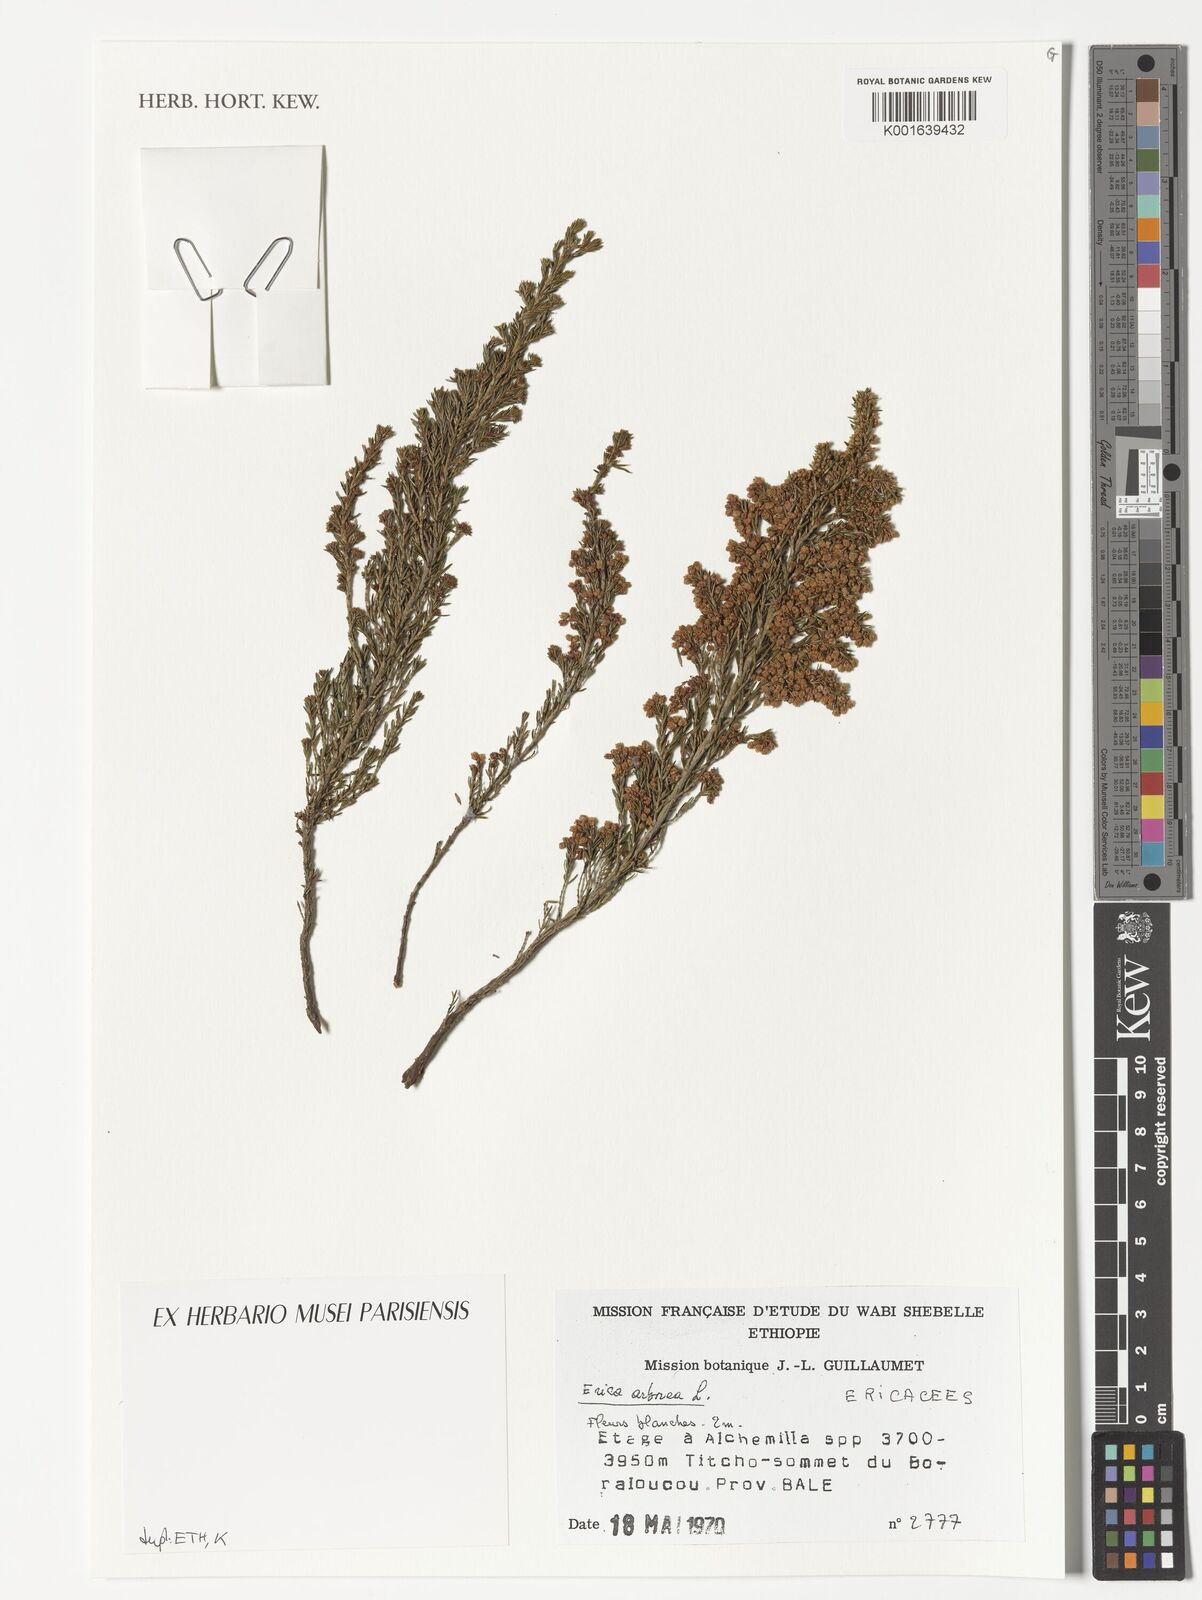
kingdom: Plantae
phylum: Tracheophyta
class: Magnoliopsida
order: Ericales
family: Ericaceae
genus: Erica
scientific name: Erica arborea
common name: Tree heath
